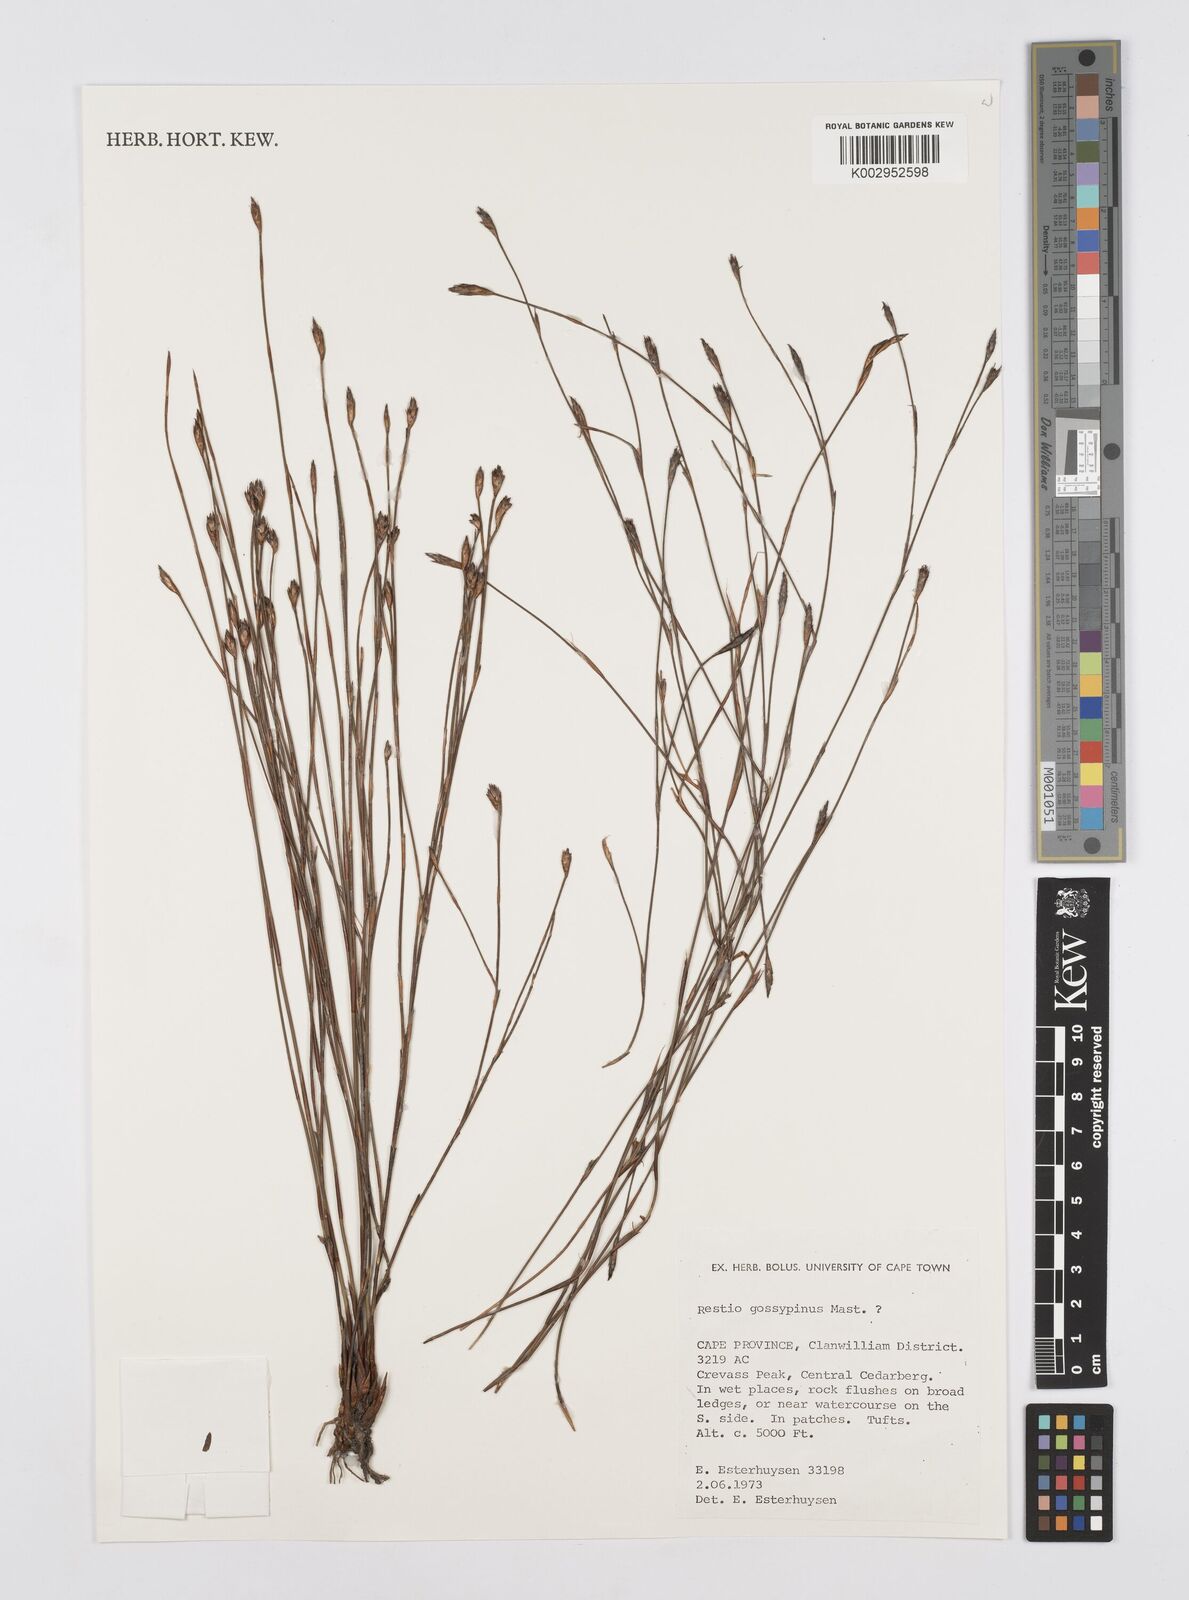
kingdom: Plantae
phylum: Tracheophyta
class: Liliopsida
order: Poales
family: Restionaceae
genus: Restio
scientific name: Restio gossypinus
